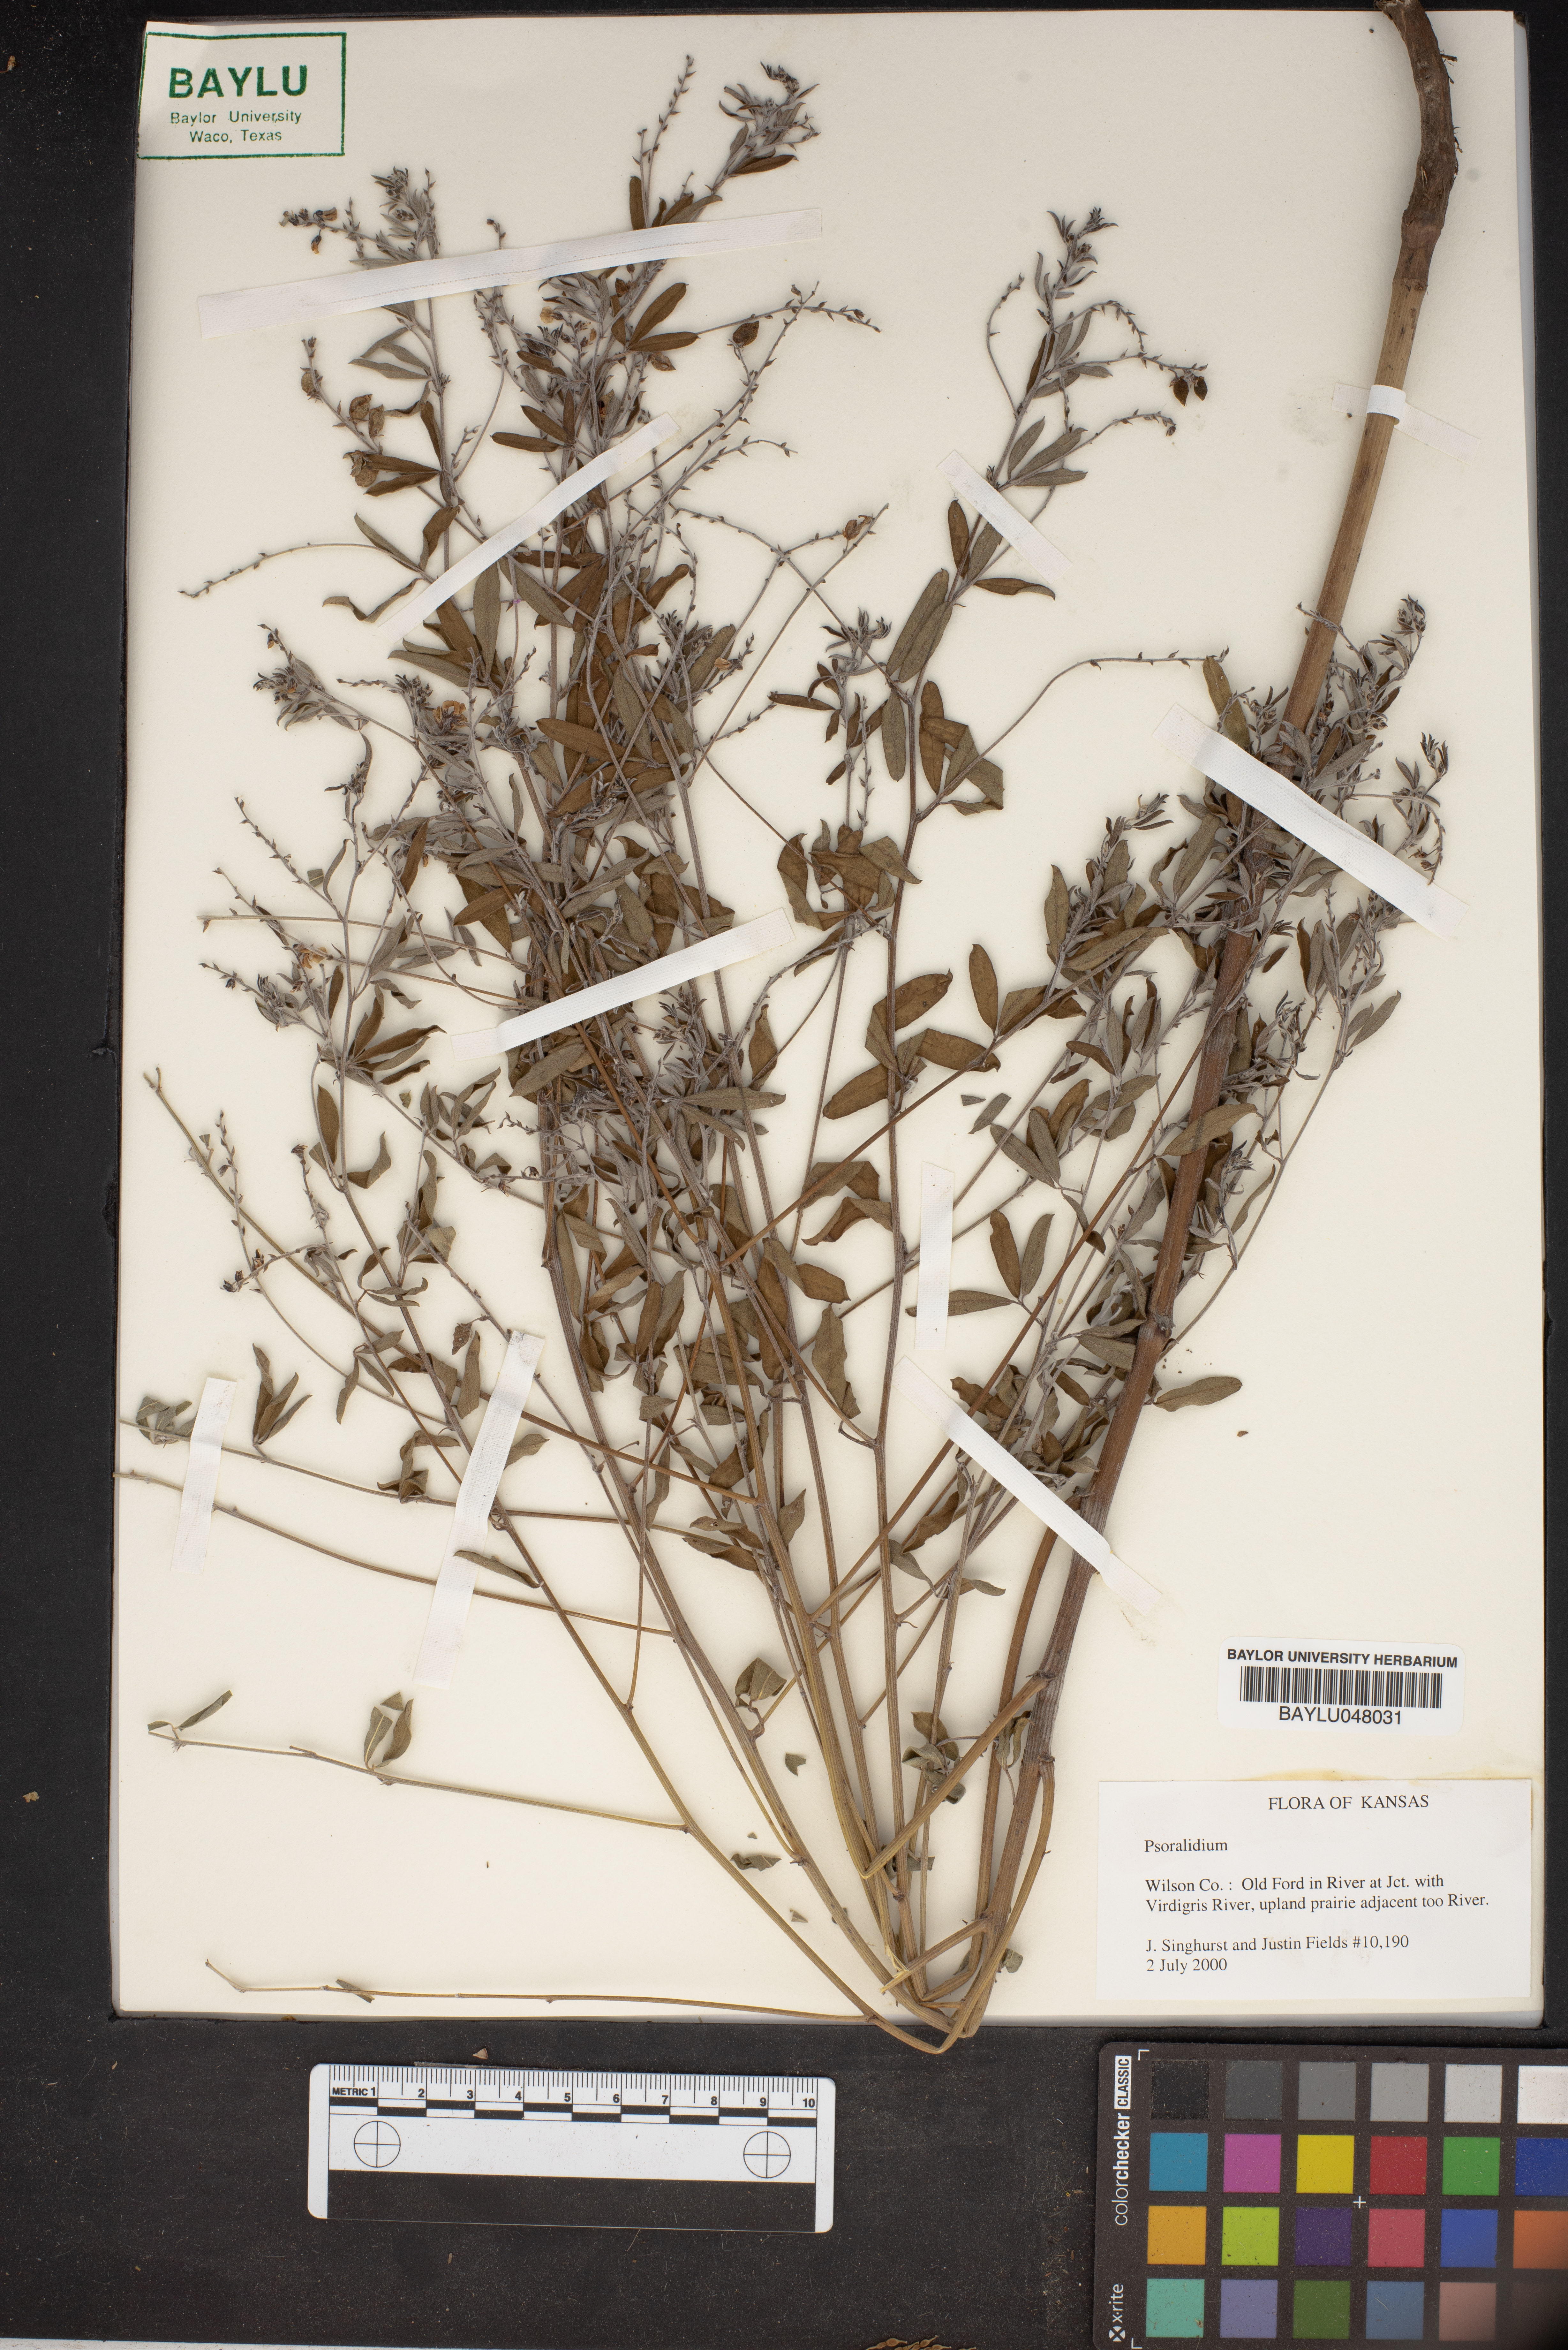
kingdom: Plantae
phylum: Tracheophyta
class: Magnoliopsida
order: Fabales
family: Fabaceae
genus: Pediomelum
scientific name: Pediomelum
